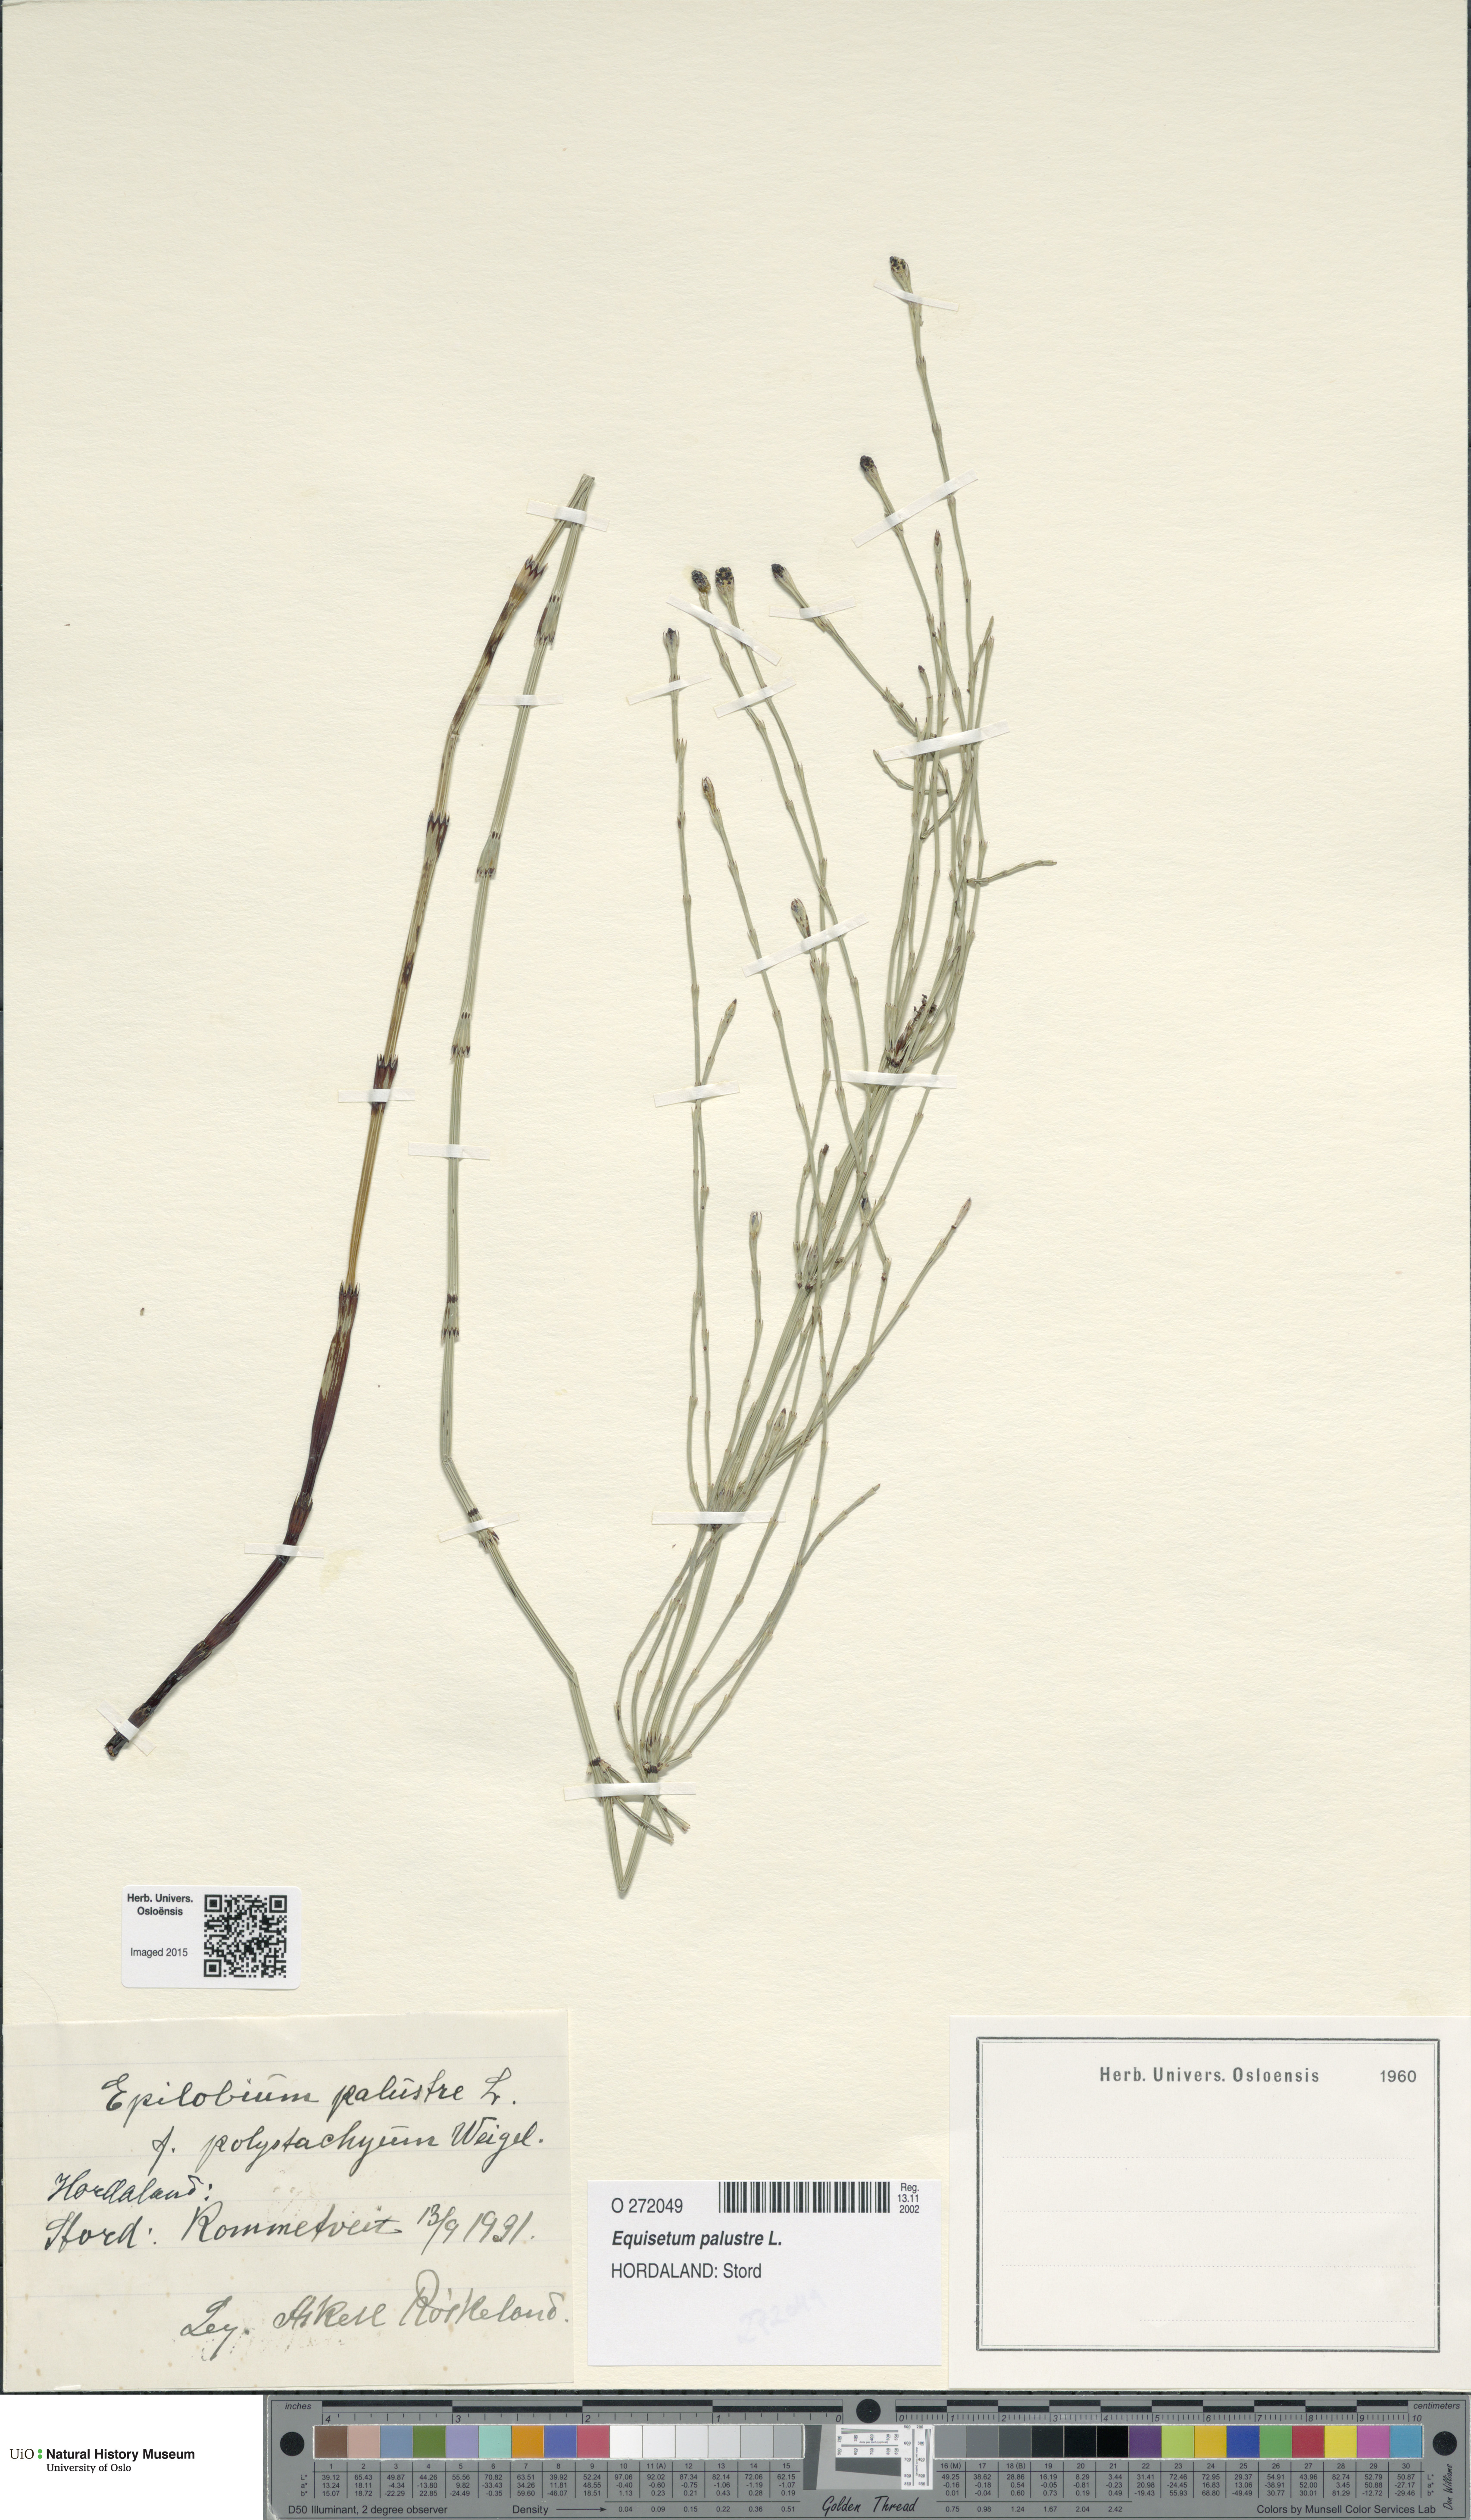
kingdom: Plantae
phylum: Tracheophyta
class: Polypodiopsida
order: Equisetales
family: Equisetaceae
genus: Equisetum
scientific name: Equisetum palustre
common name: Marsh horsetail
